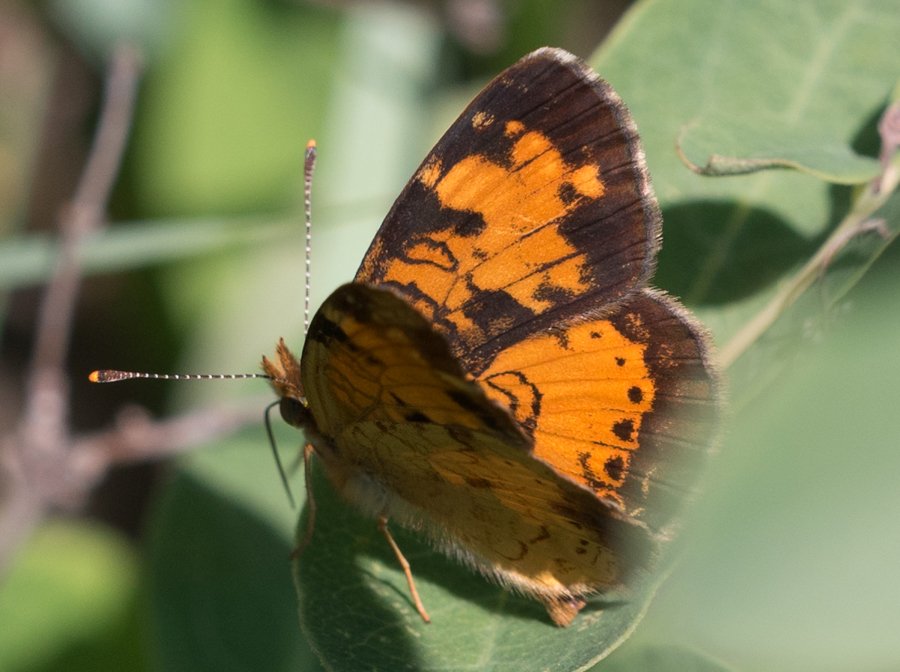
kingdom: Animalia
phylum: Arthropoda
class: Insecta
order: Lepidoptera
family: Nymphalidae
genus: Phyciodes
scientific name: Phyciodes tharos
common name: Northern Crescent
